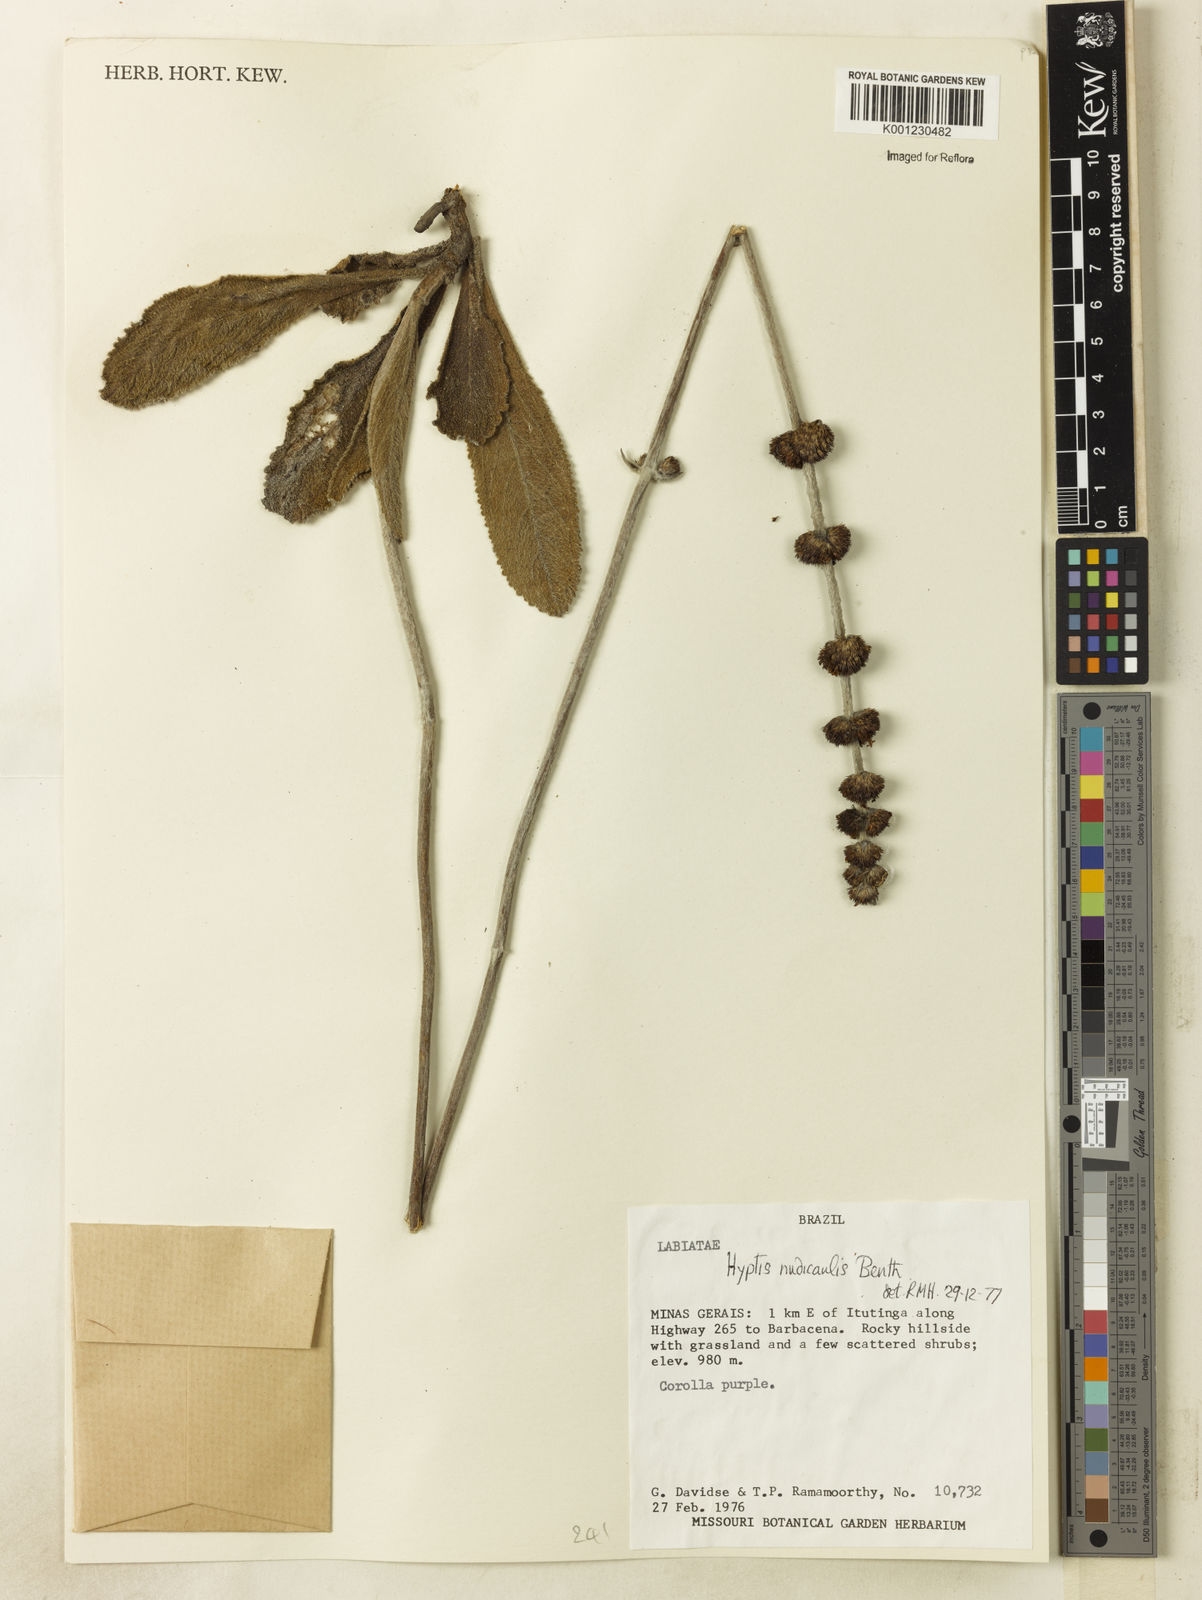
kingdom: Plantae
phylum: Tracheophyta
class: Magnoliopsida
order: Lamiales
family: Lamiaceae
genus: Hyptis
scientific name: Hyptis nudicaulis
